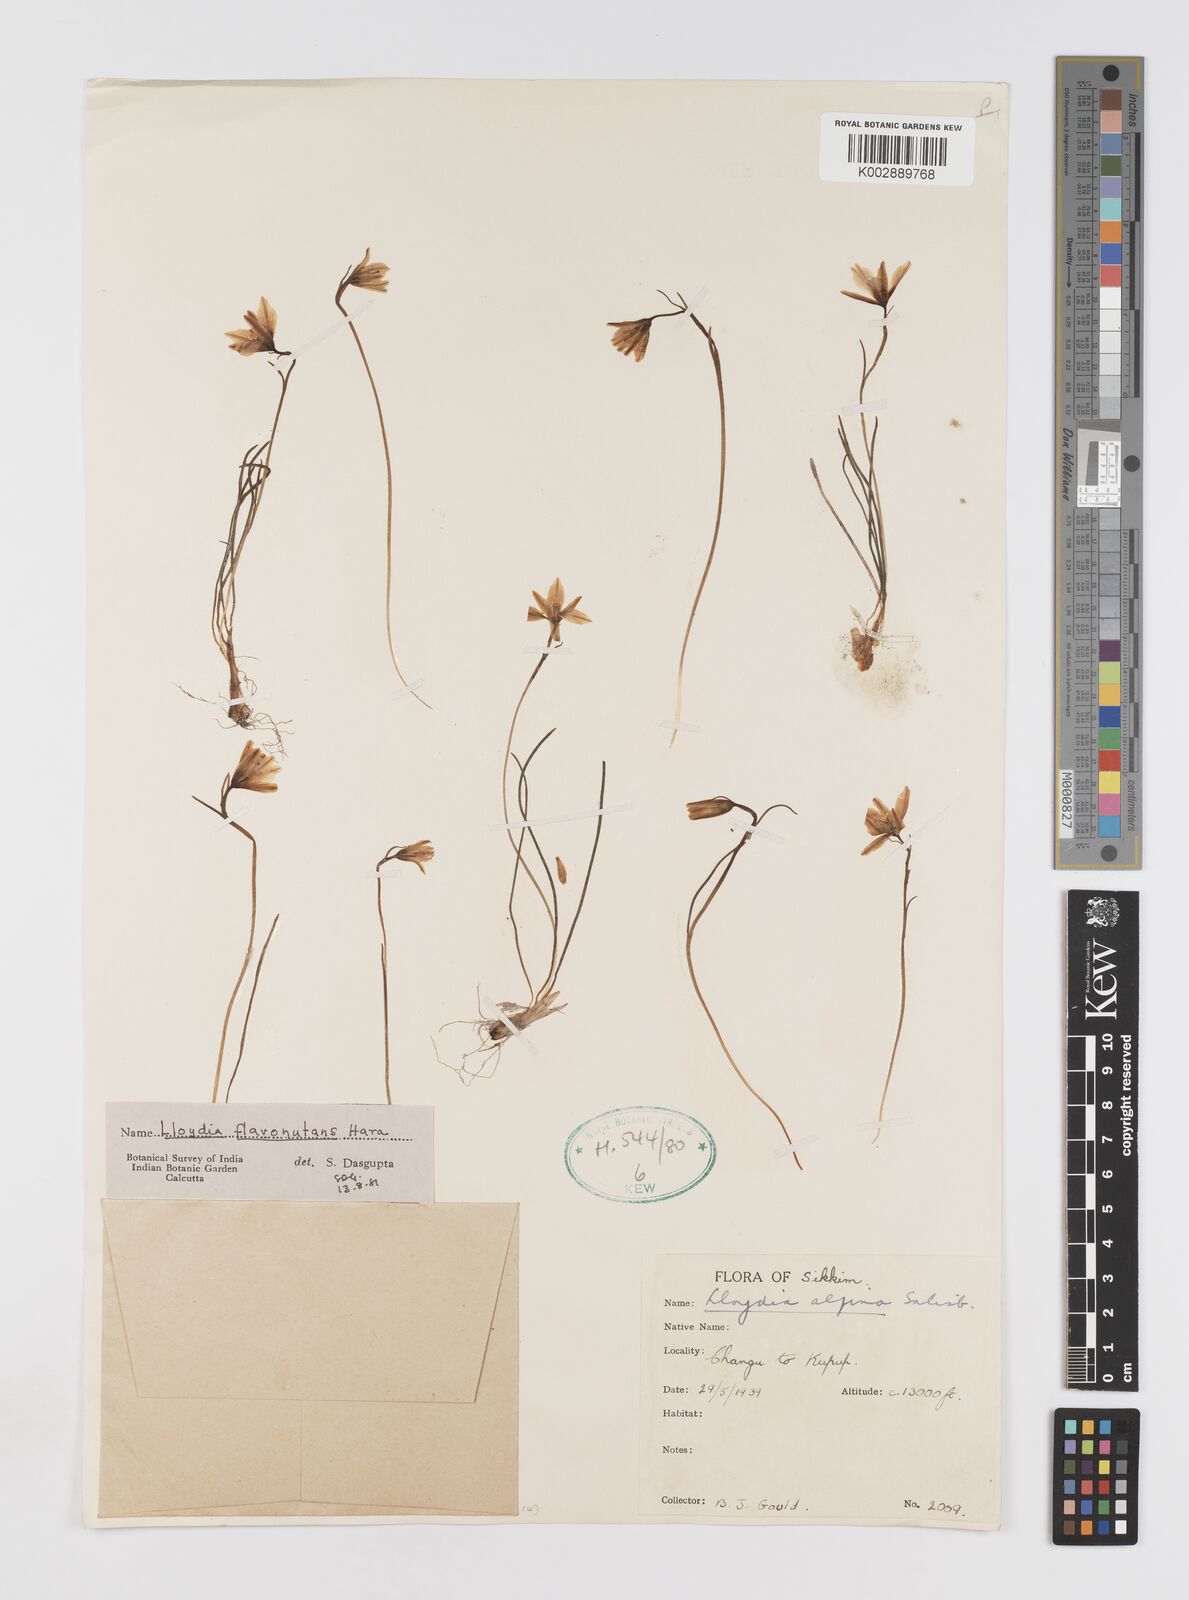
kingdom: Plantae
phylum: Tracheophyta
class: Liliopsida
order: Liliales
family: Liliaceae
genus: Gagea
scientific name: Gagea flavonutans
